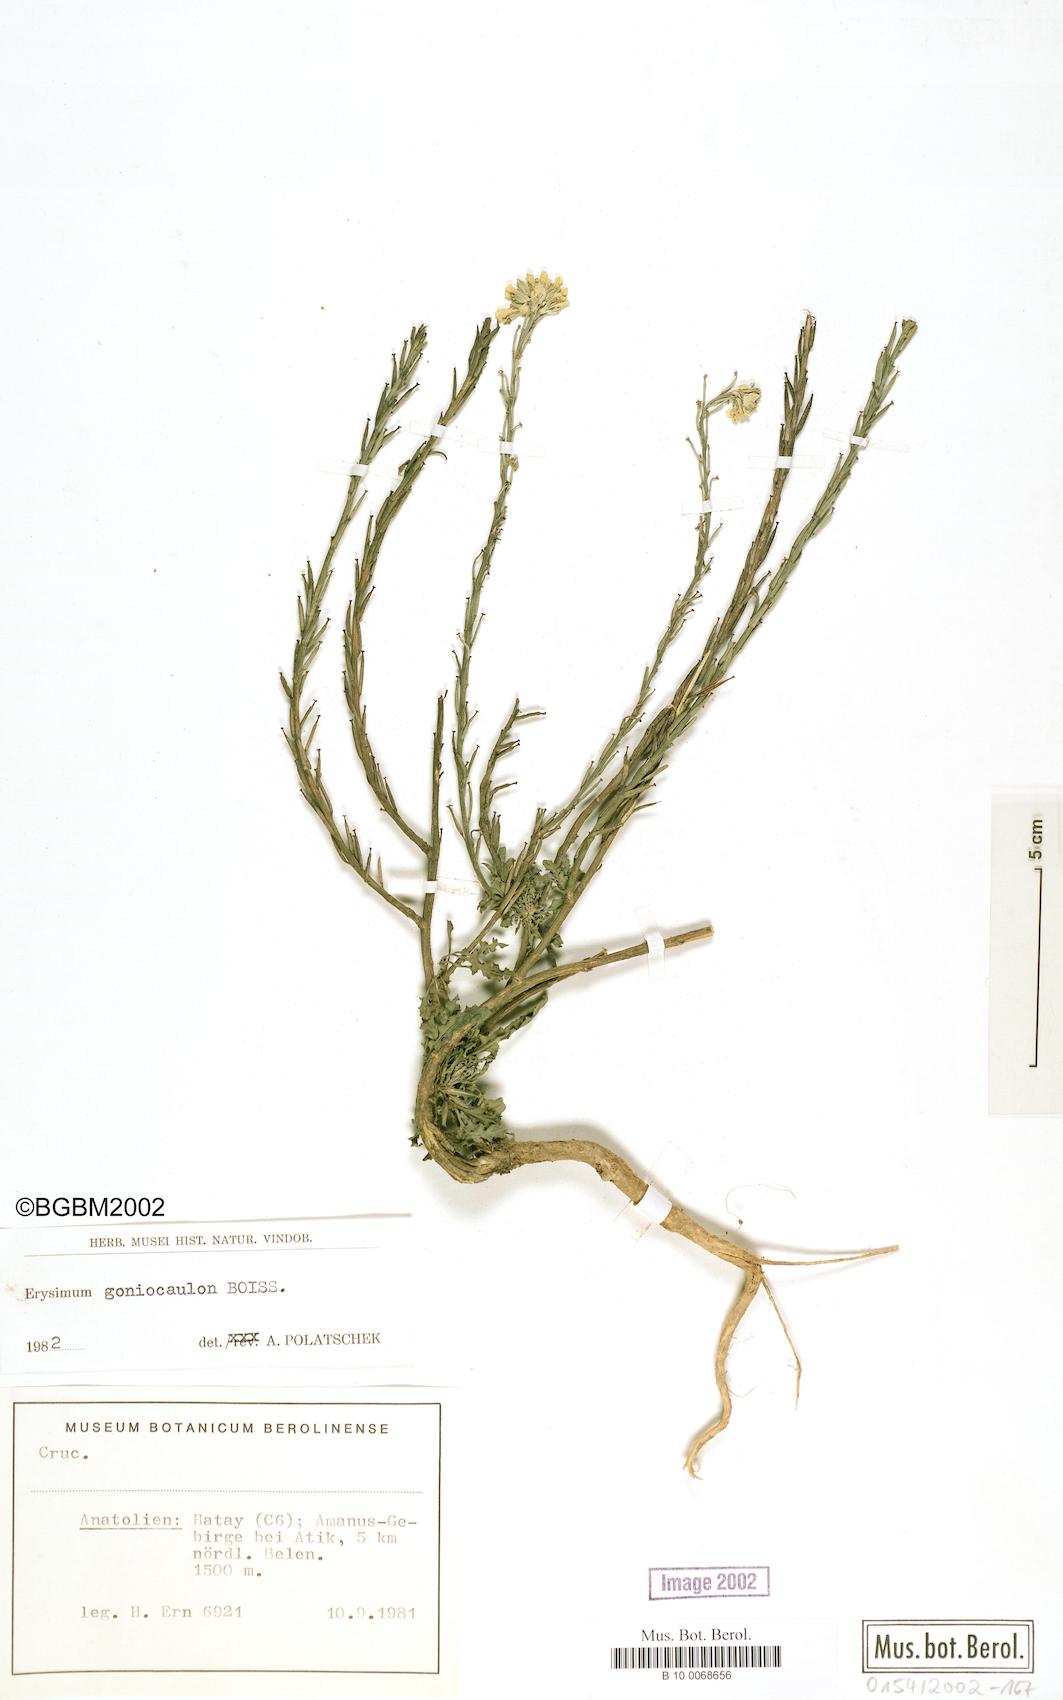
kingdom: Plantae
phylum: Tracheophyta
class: Magnoliopsida
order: Brassicales
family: Brassicaceae
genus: Erysimum
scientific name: Erysimum scabrum
